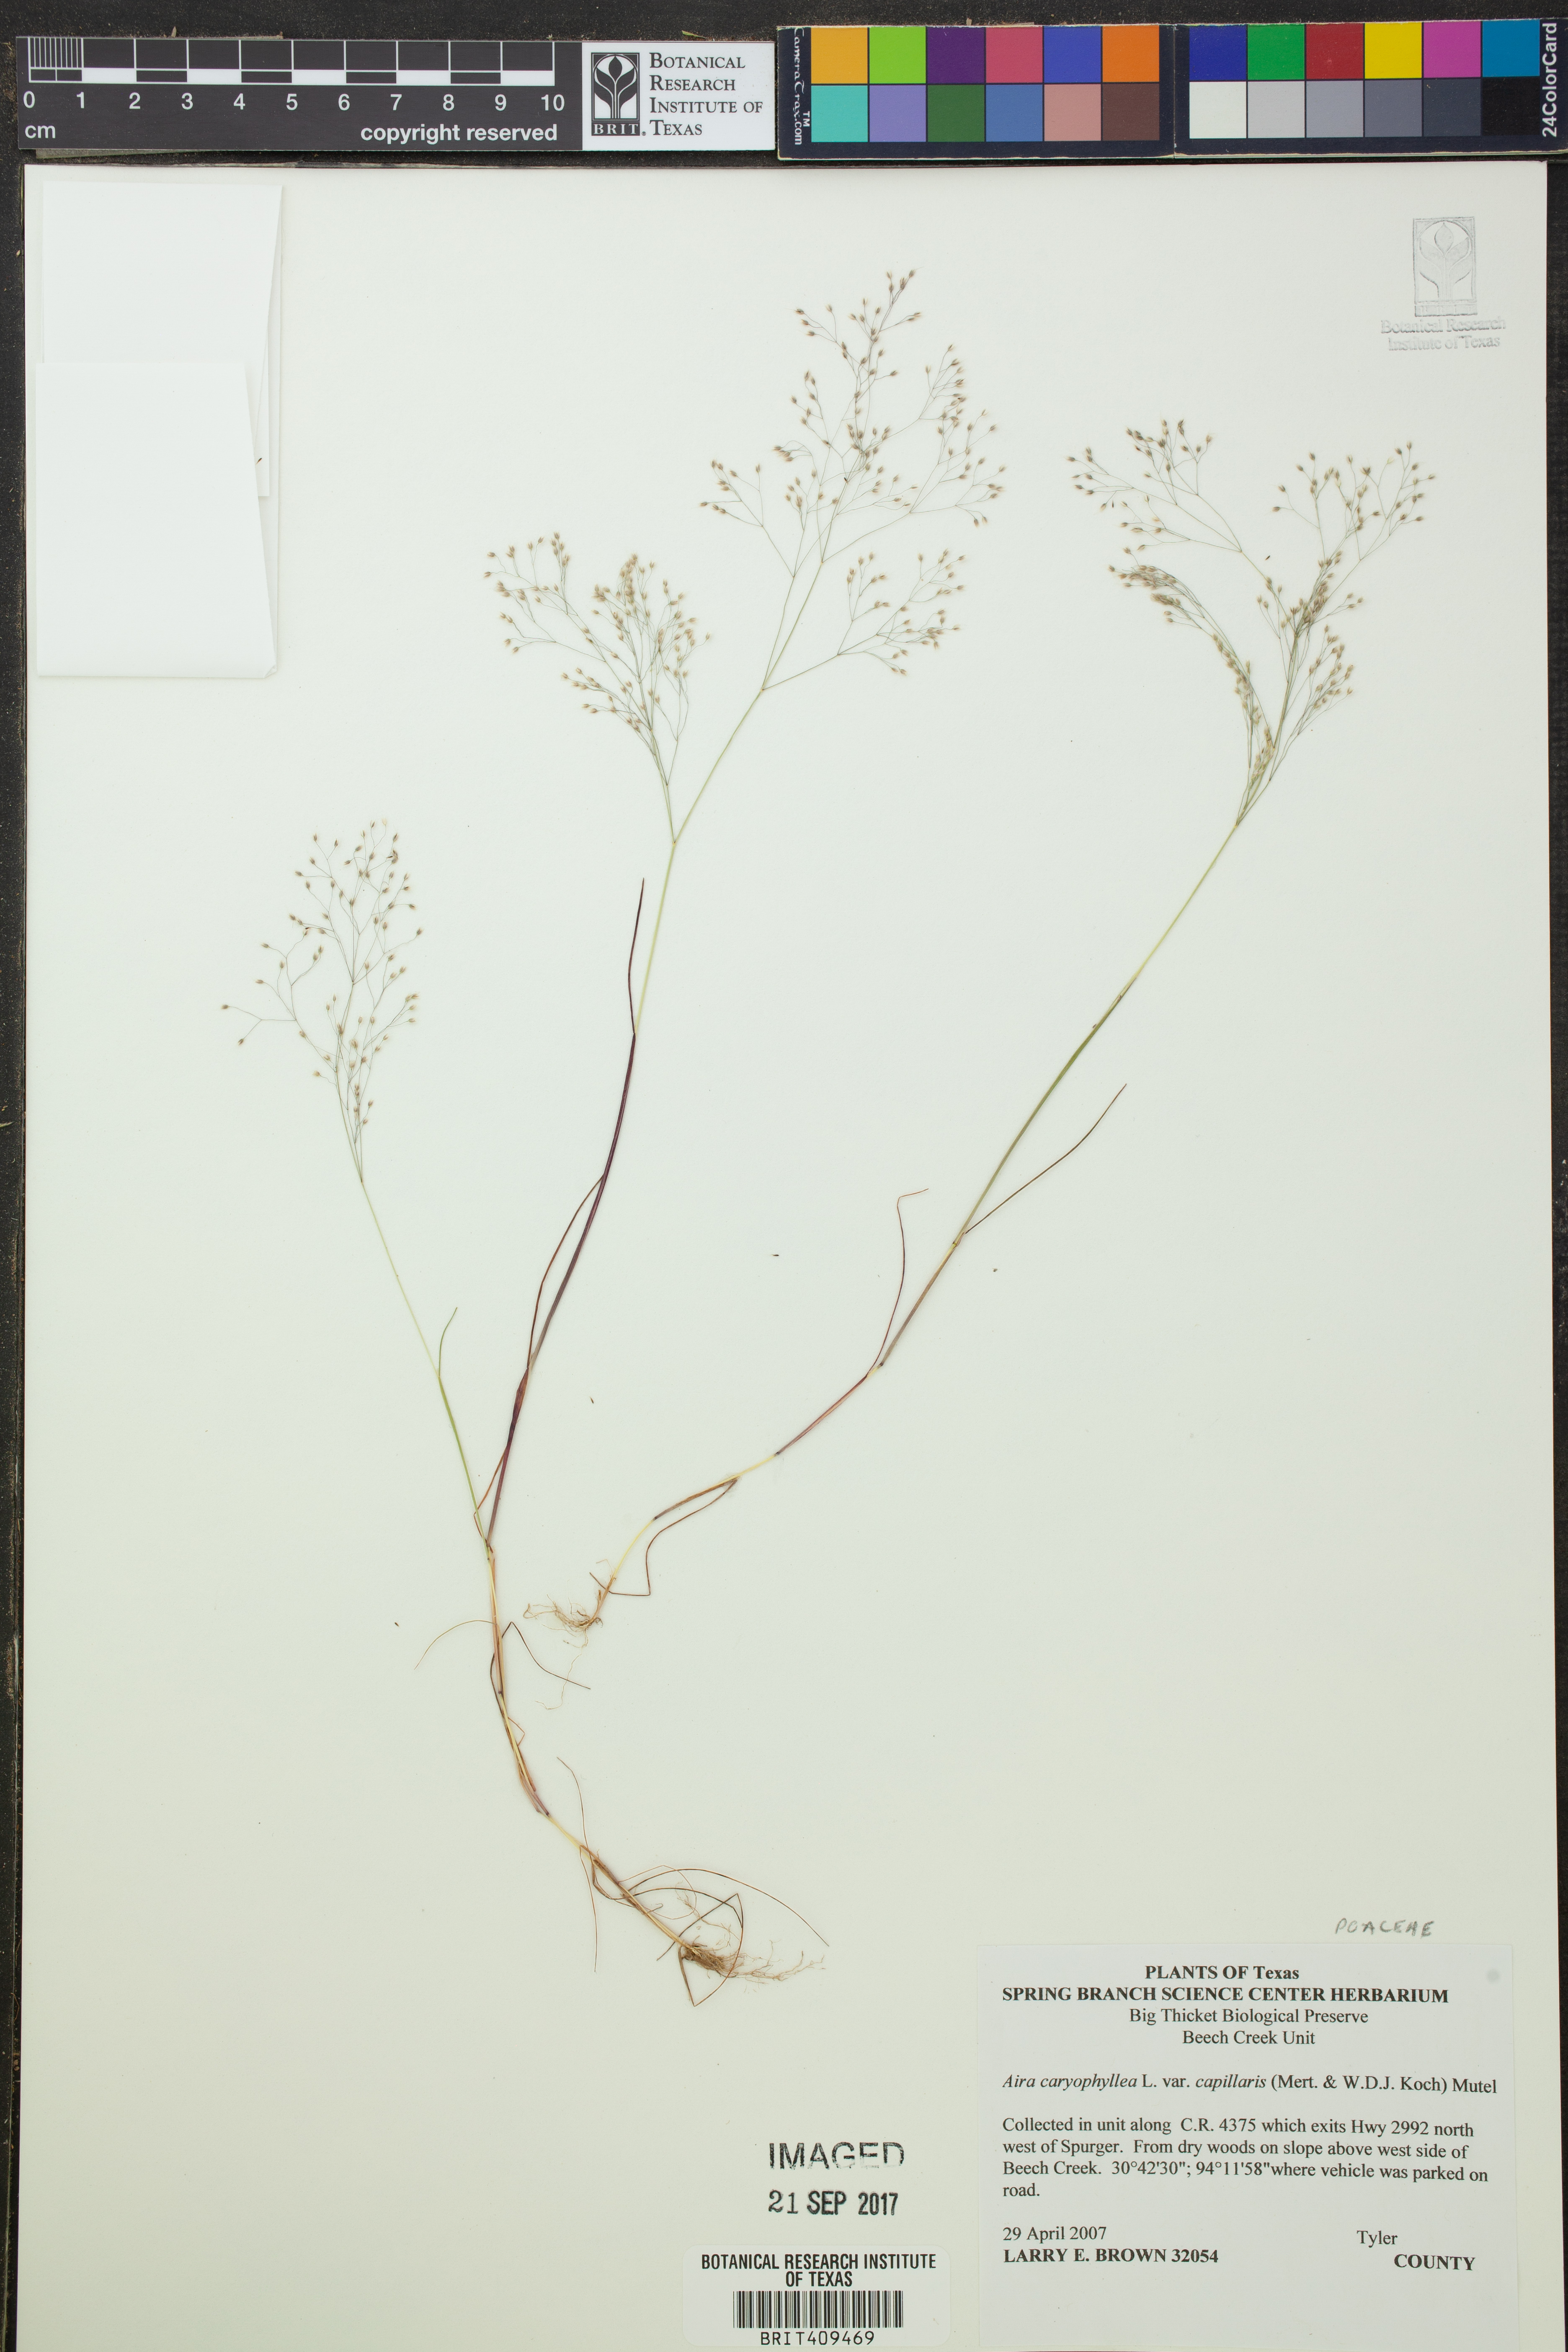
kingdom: Plantae
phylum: Tracheophyta
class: Liliopsida
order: Poales
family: Poaceae
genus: Aira
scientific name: Aira elegans
